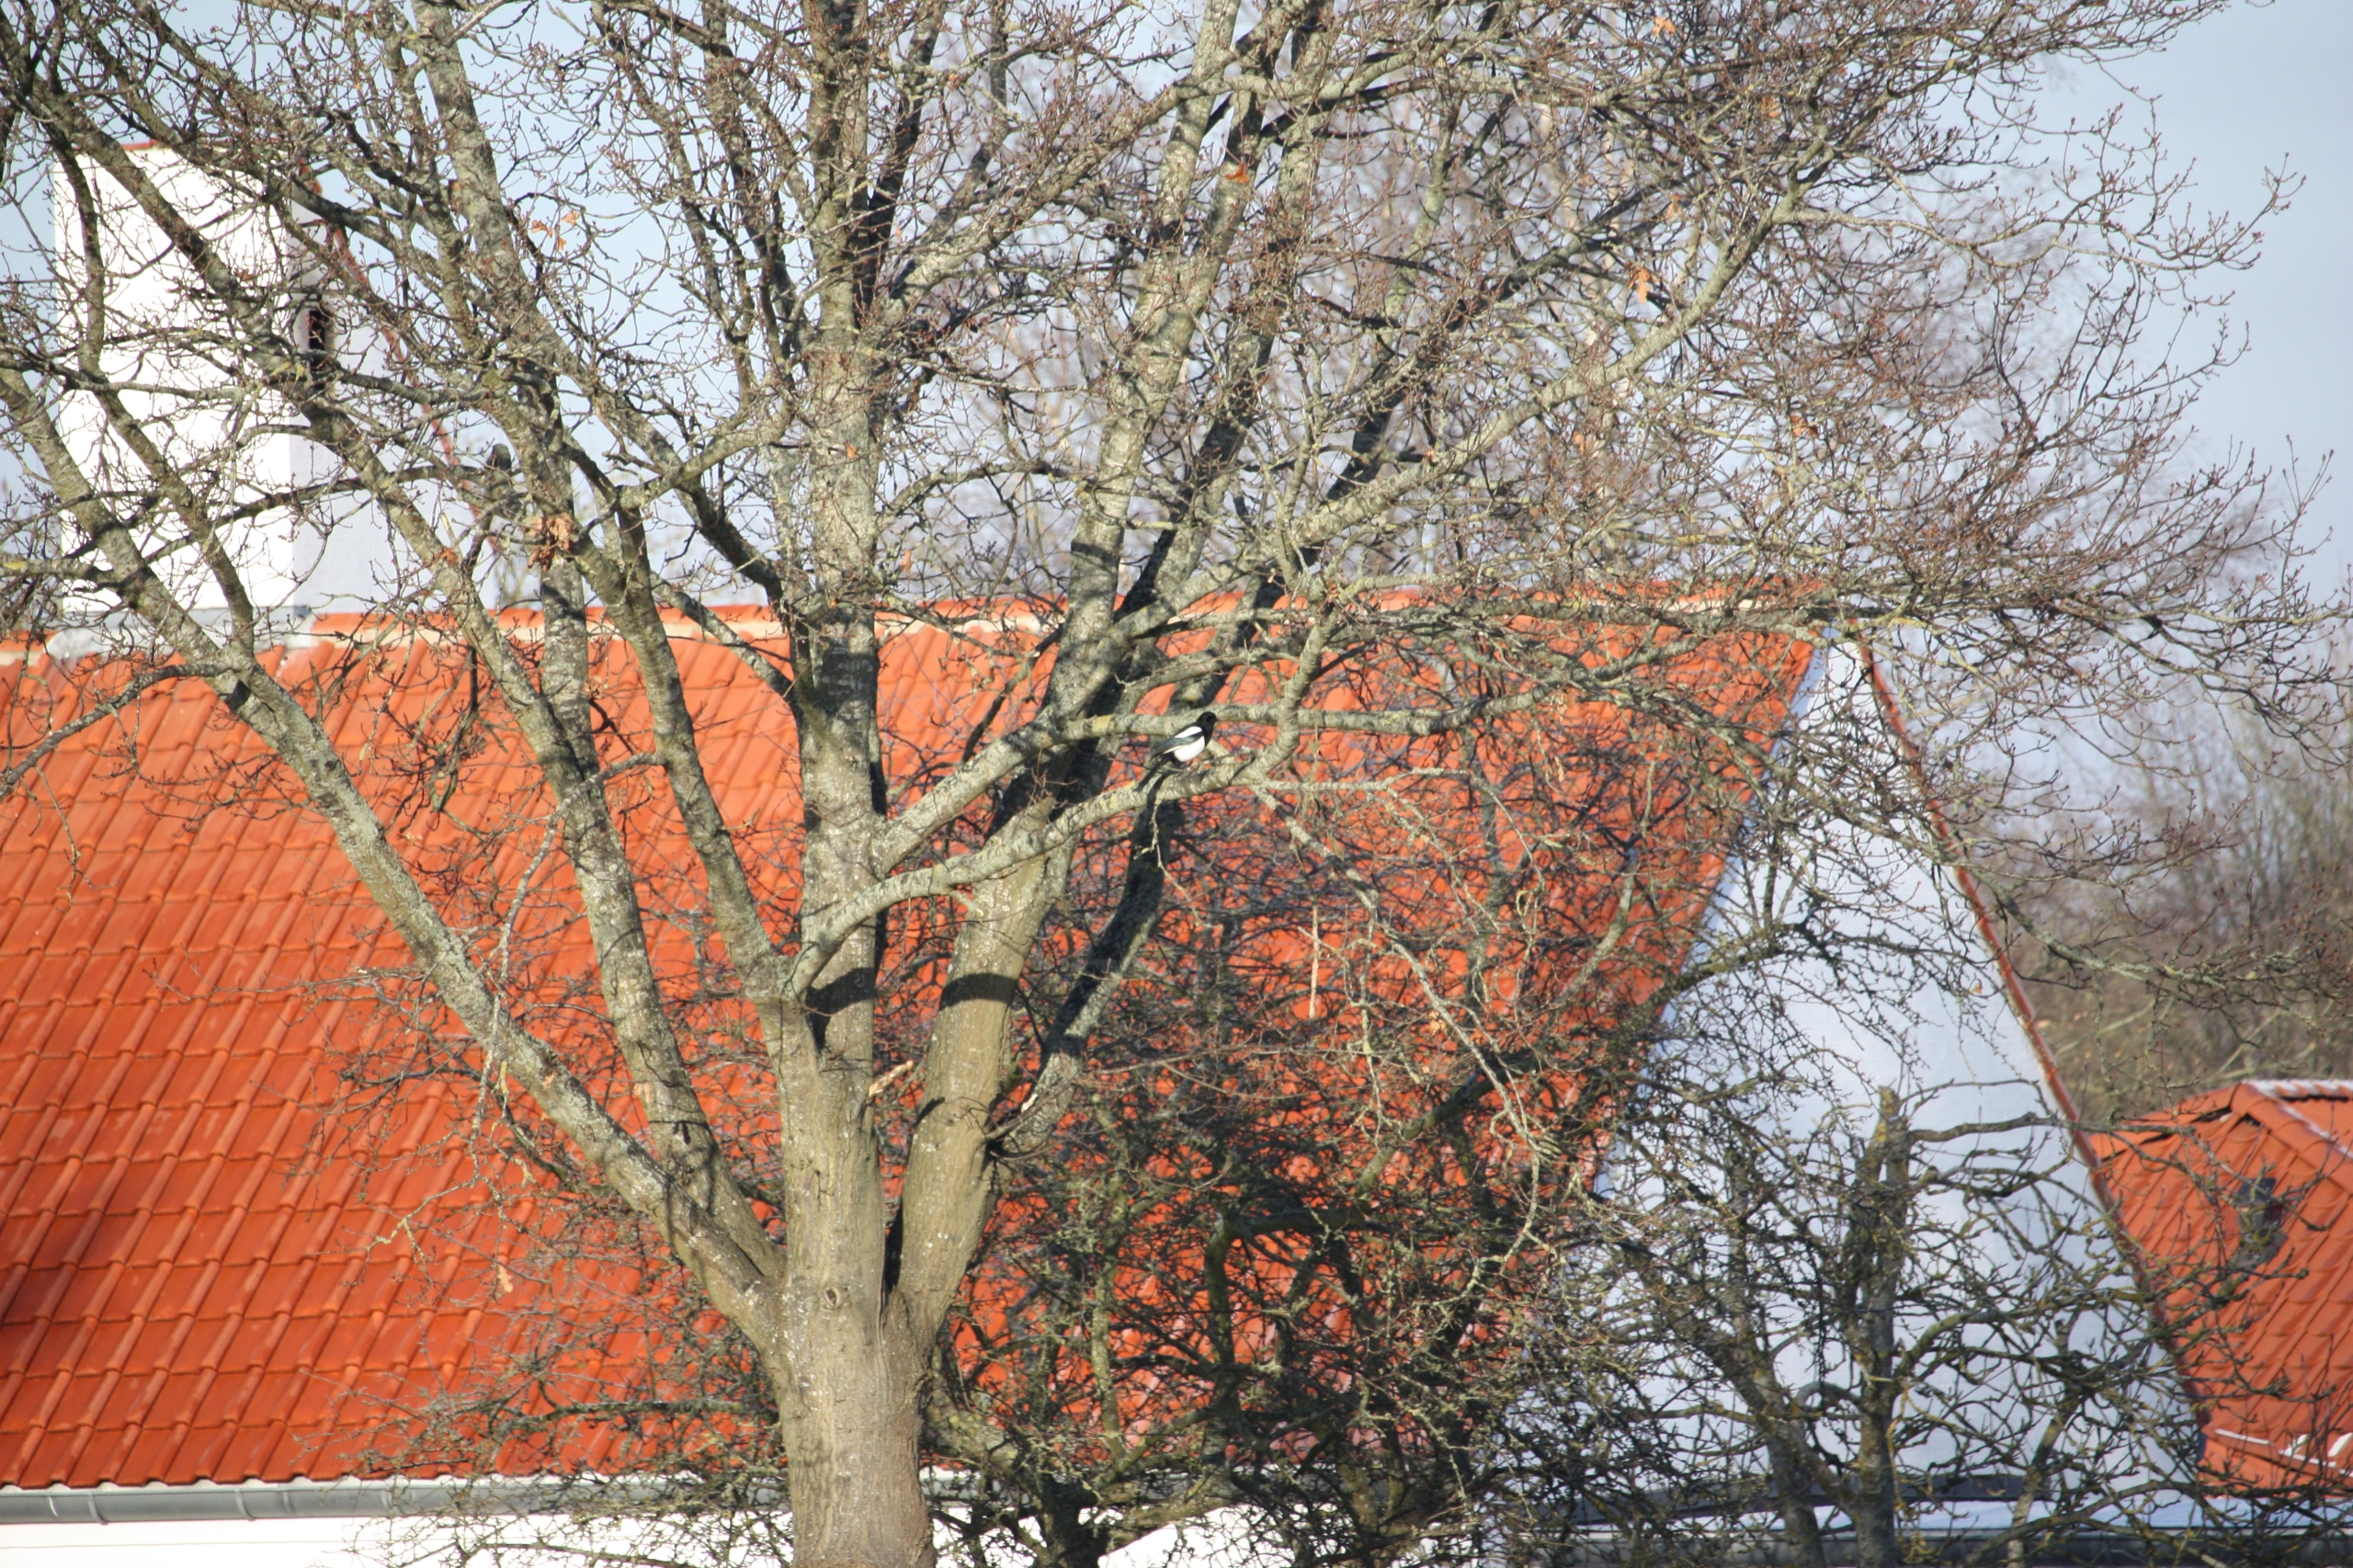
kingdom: Animalia
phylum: Chordata
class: Aves
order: Passeriformes
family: Corvidae
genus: Pica
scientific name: Pica pica
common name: Husskade
